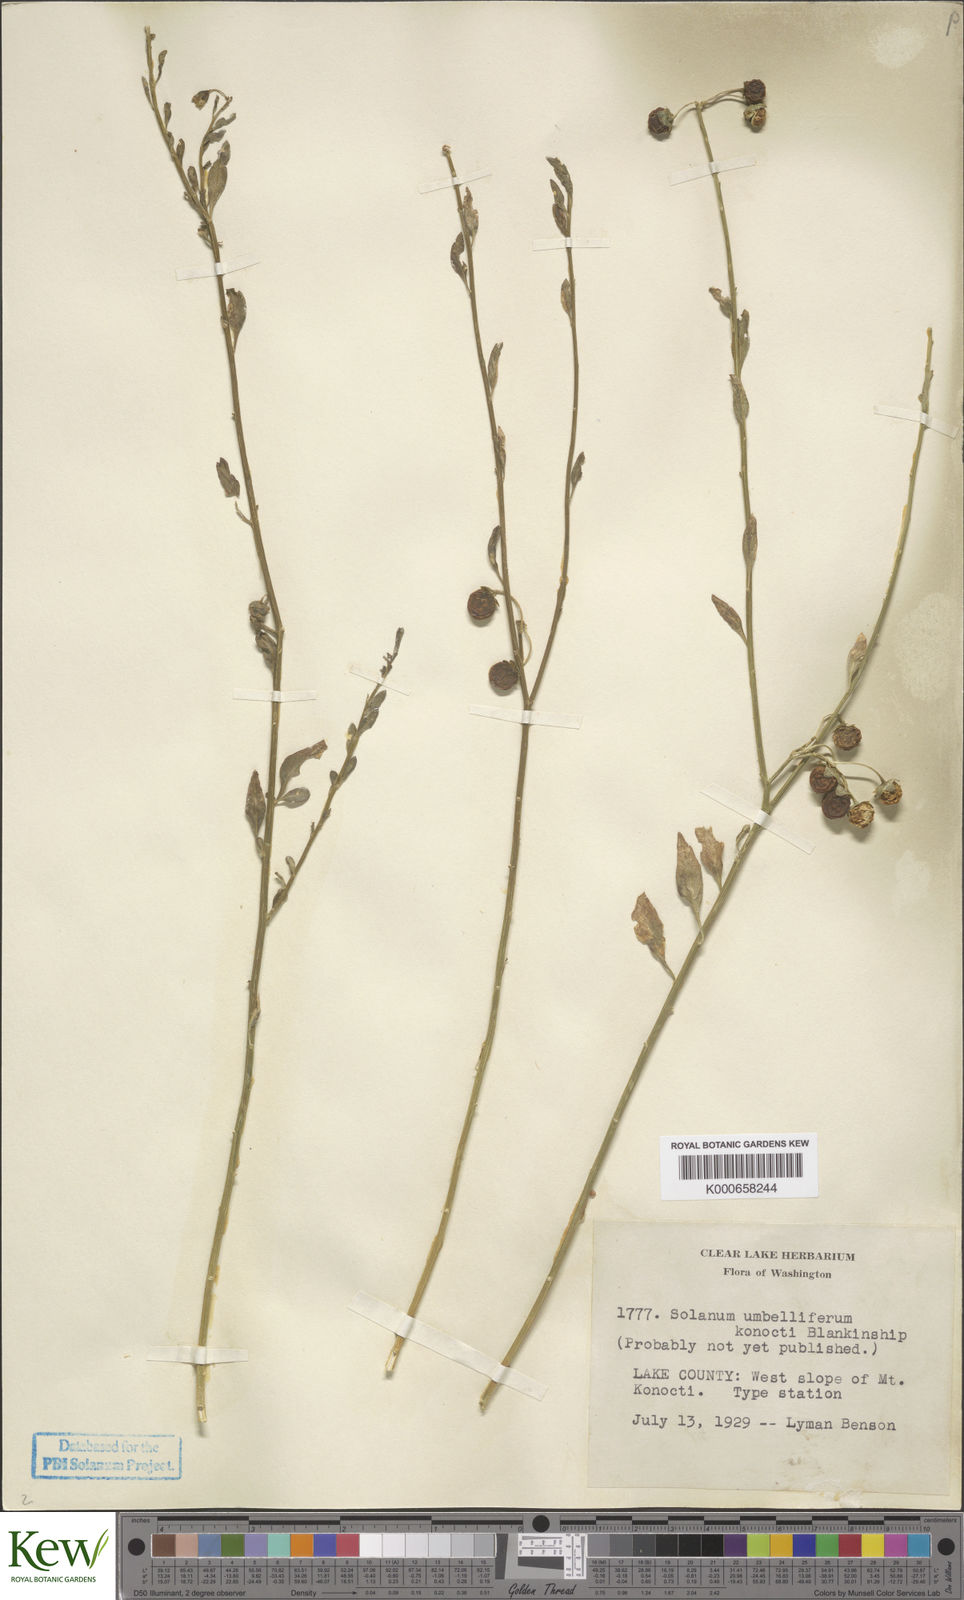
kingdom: Plantae
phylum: Tracheophyta
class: Magnoliopsida
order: Solanales
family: Solanaceae
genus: Solanum
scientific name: Solanum umbelliferum
